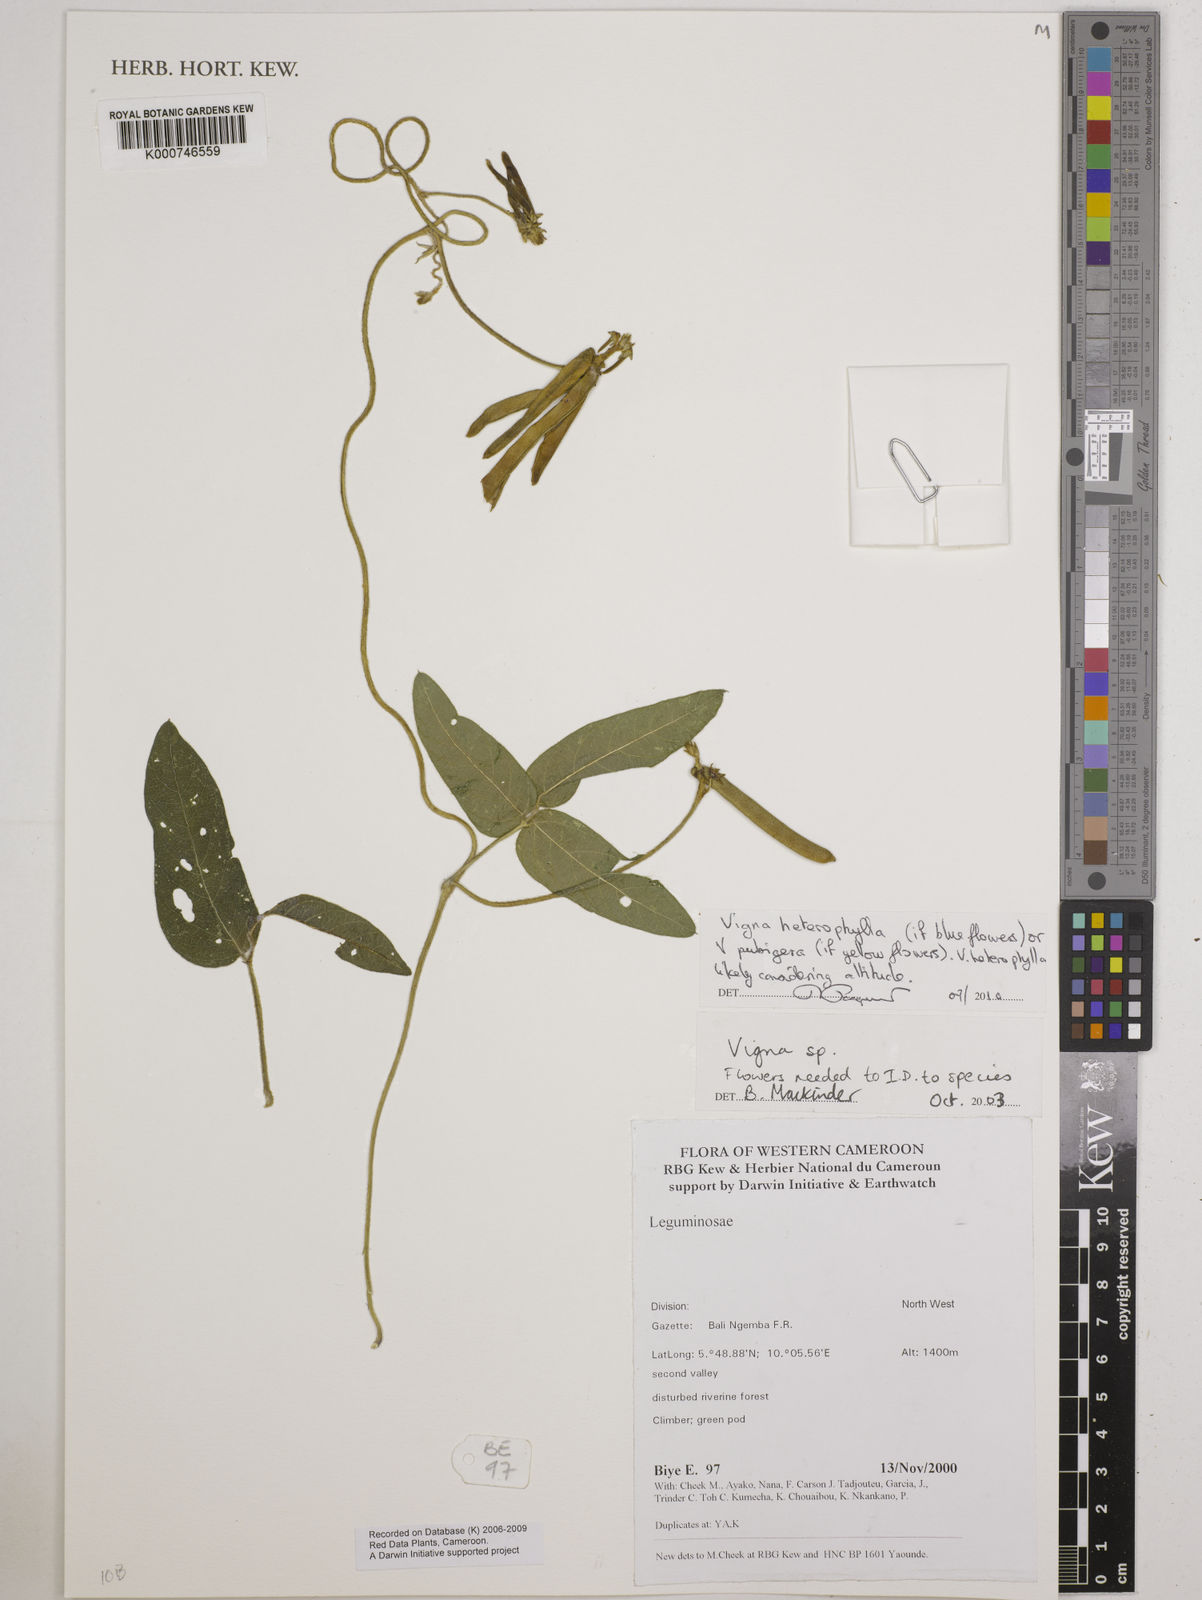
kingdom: Plantae
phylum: Tracheophyta
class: Magnoliopsida
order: Fabales
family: Fabaceae
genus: Vigna
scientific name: Vigna heterophylla
